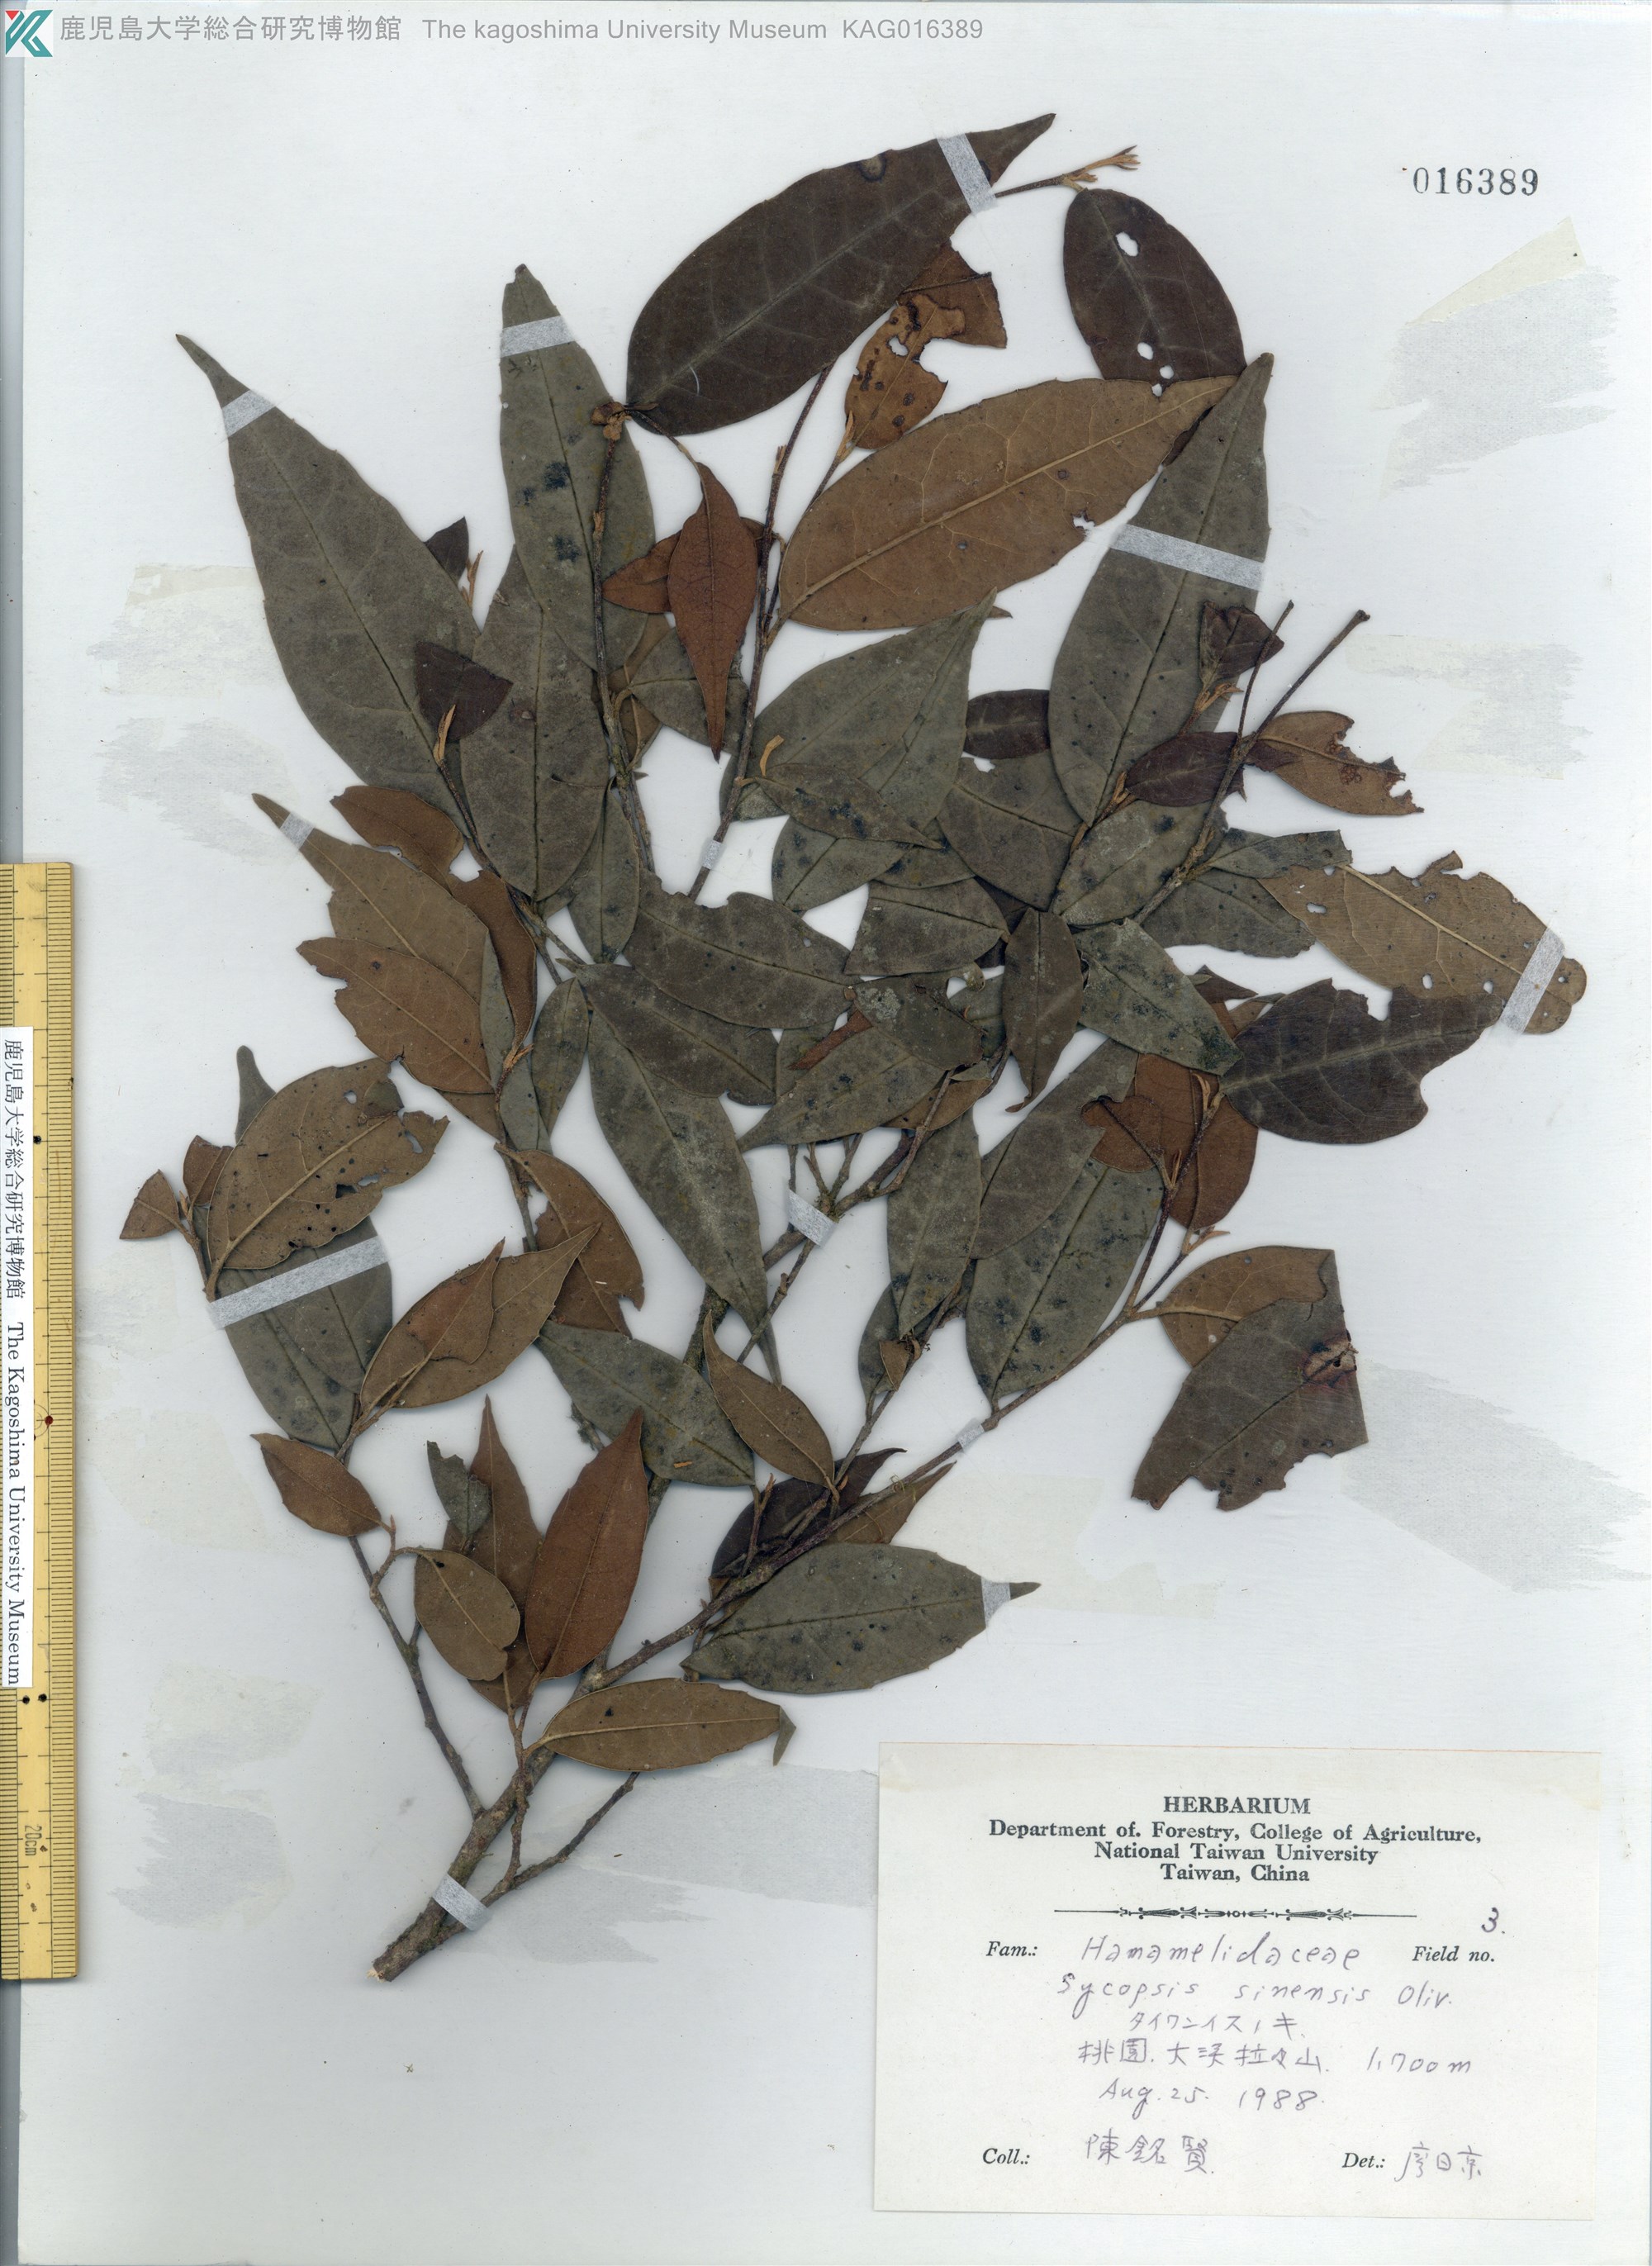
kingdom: Plantae
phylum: Tracheophyta
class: Magnoliopsida
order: Saxifragales
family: Hamamelidaceae
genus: Sycopsis
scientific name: Sycopsis sinensis
